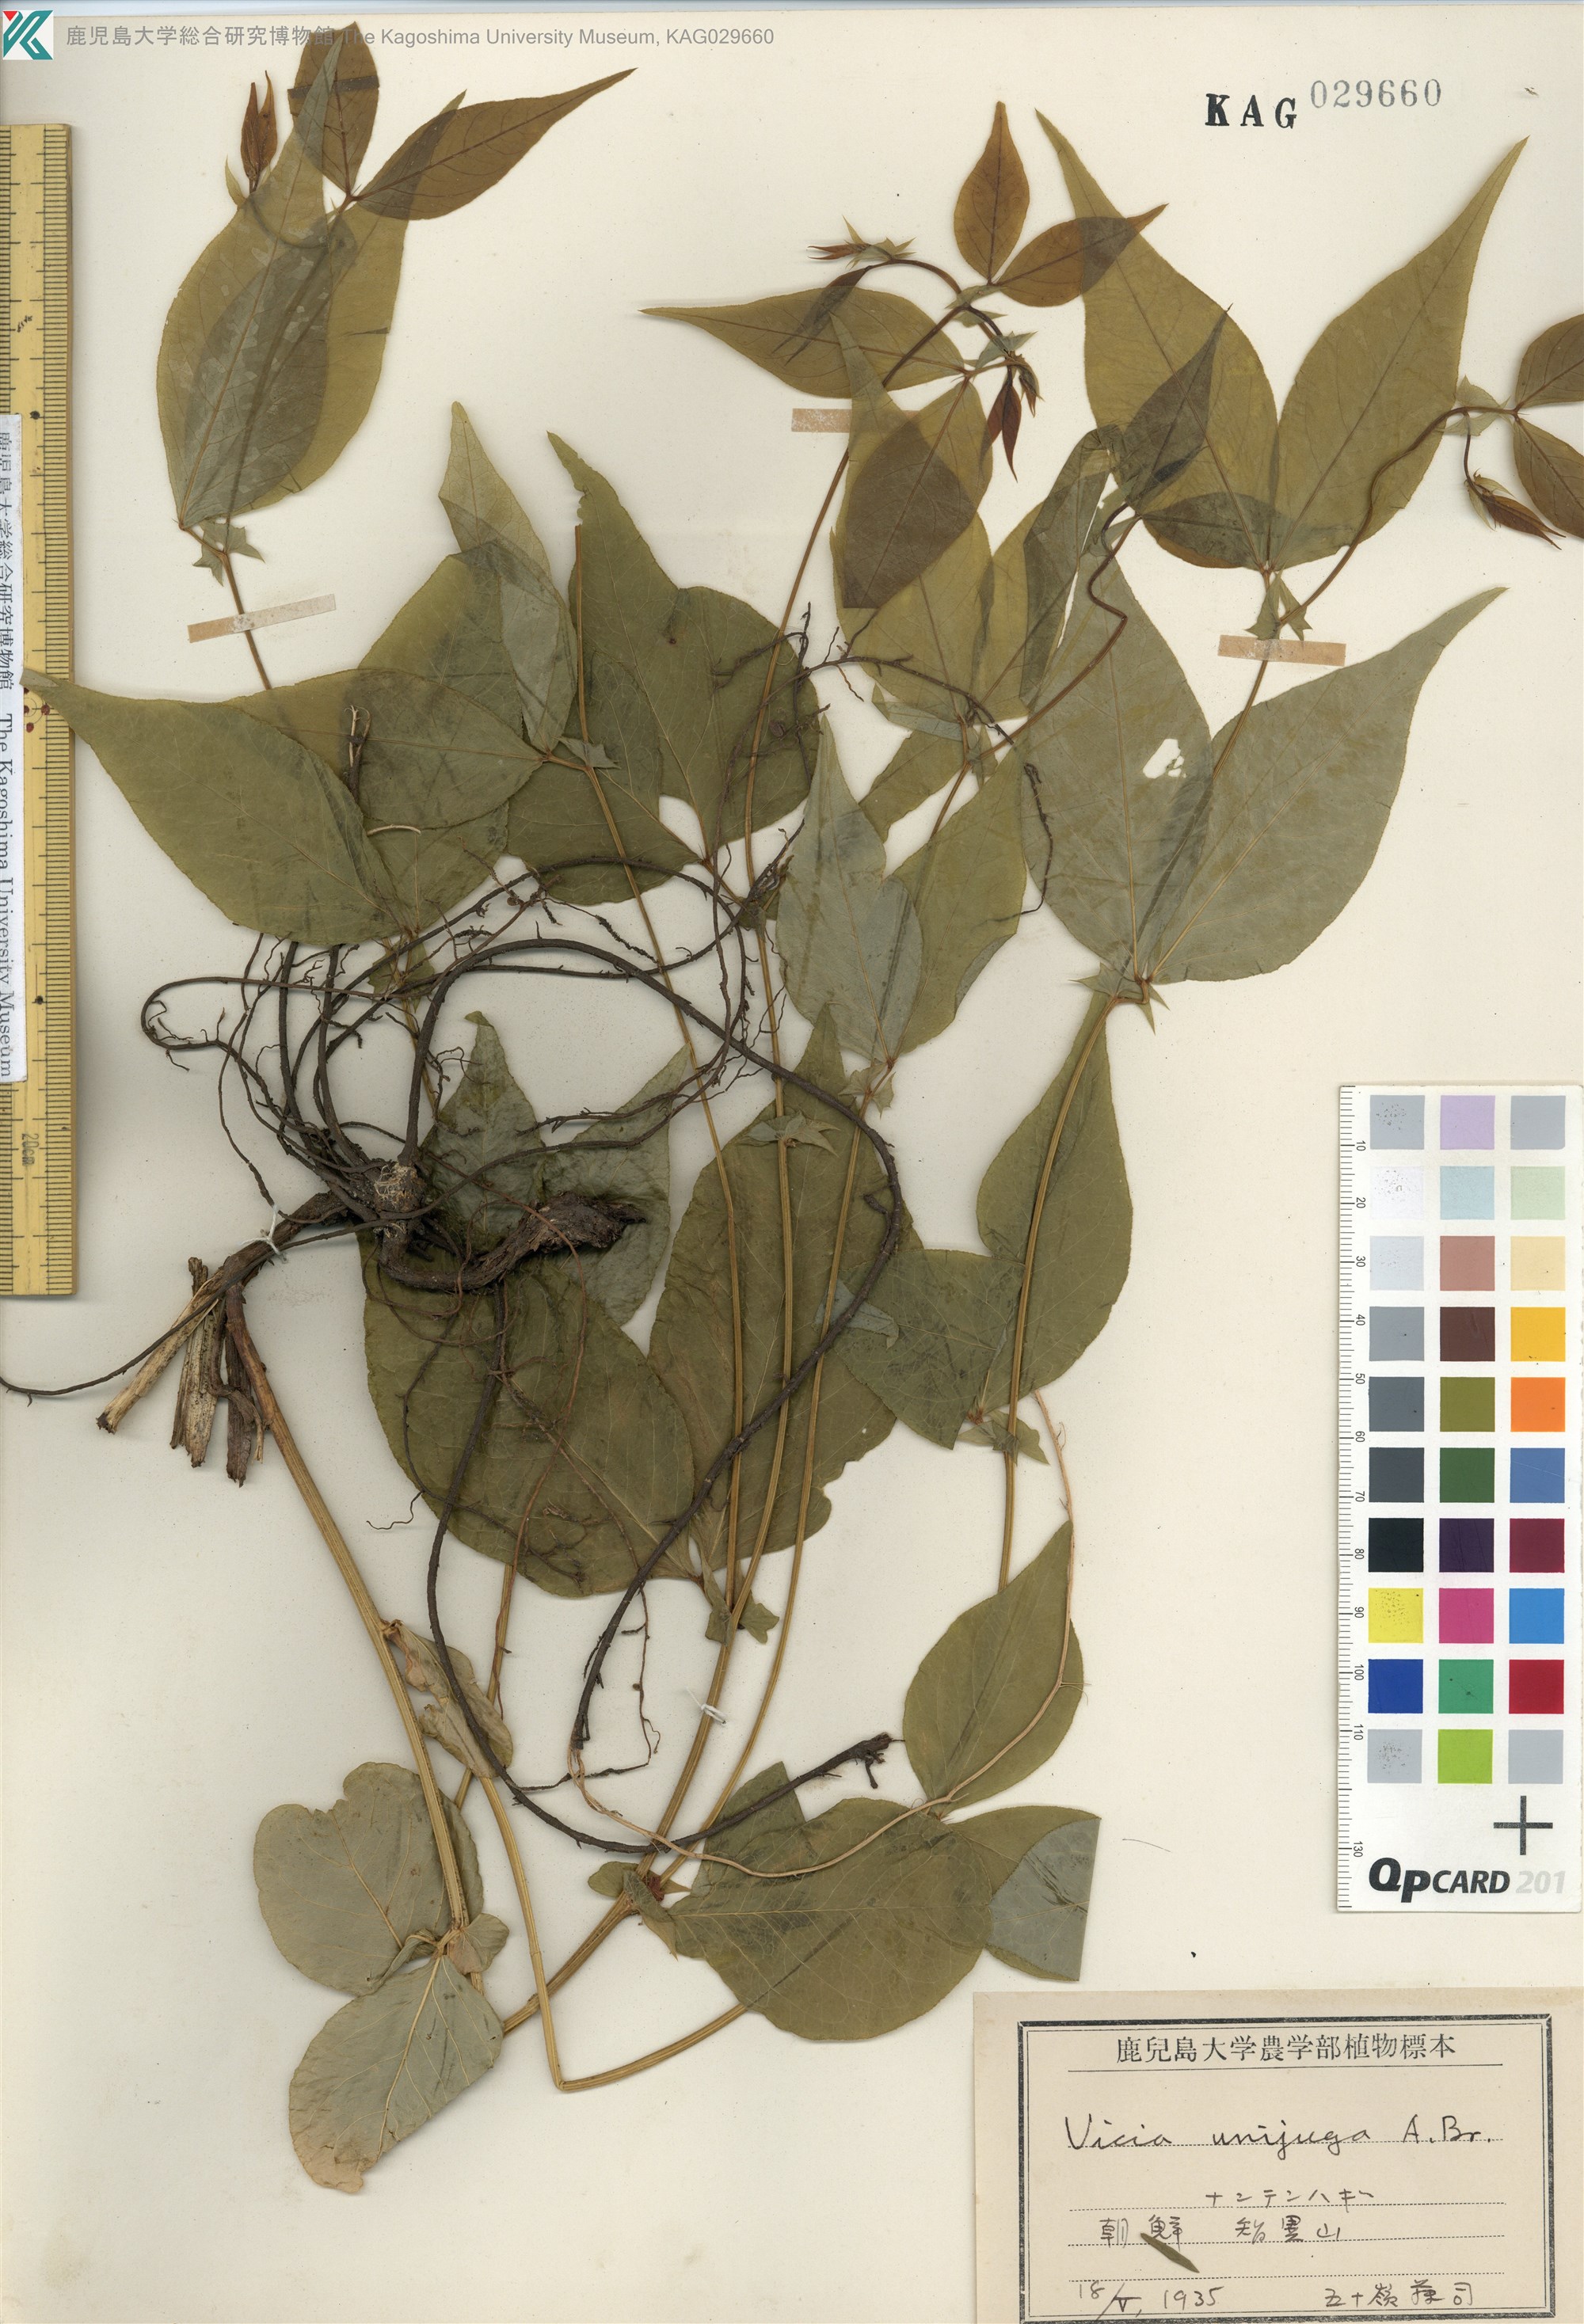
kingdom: Plantae
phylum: Tracheophyta
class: Magnoliopsida
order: Fabales
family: Fabaceae
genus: Vicia
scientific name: Vicia unijuga
